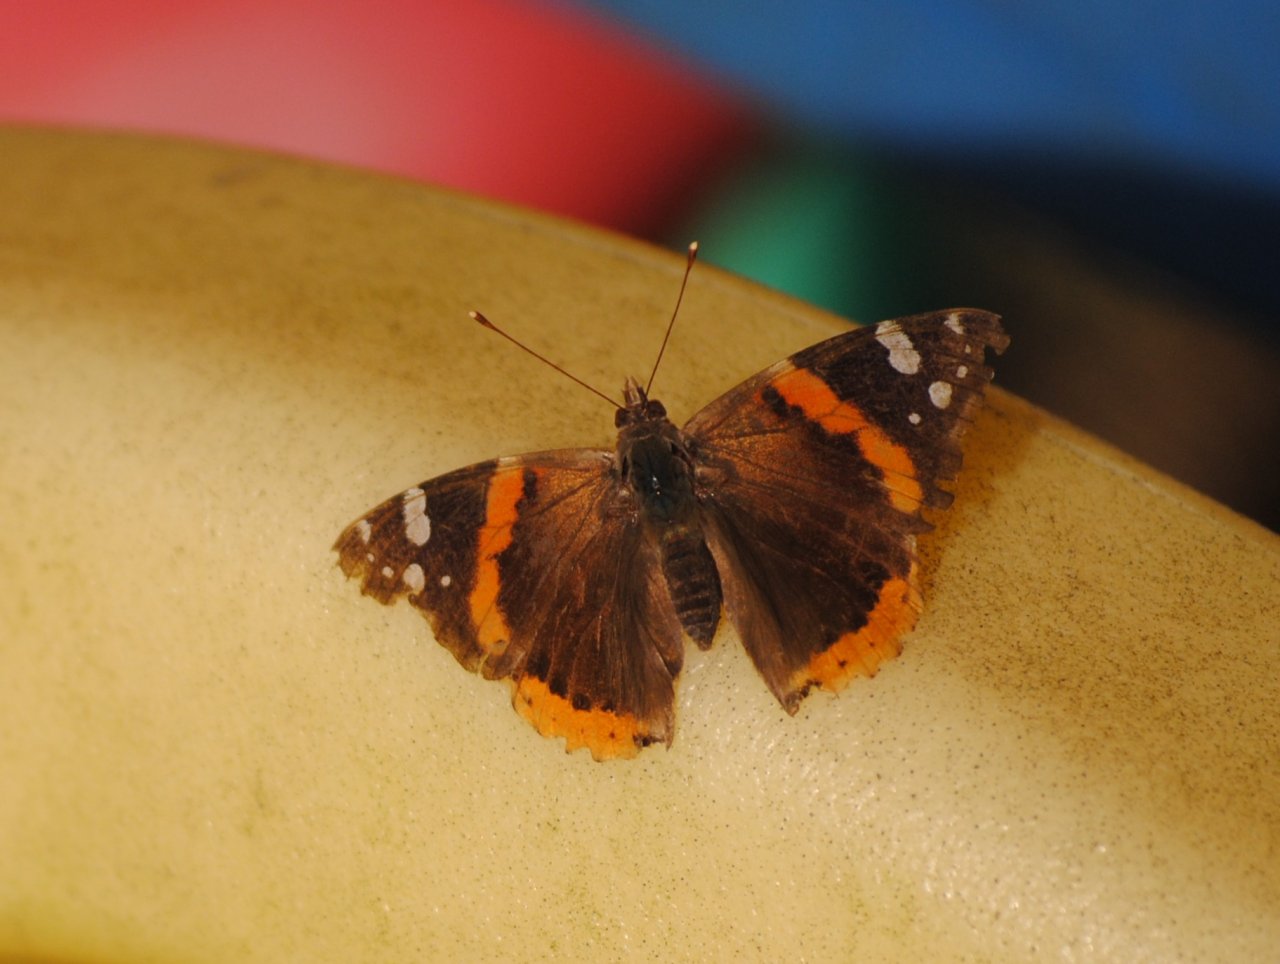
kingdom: Animalia
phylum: Arthropoda
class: Insecta
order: Lepidoptera
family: Nymphalidae
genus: Vanessa
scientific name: Vanessa atalanta
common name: Red Admiral
